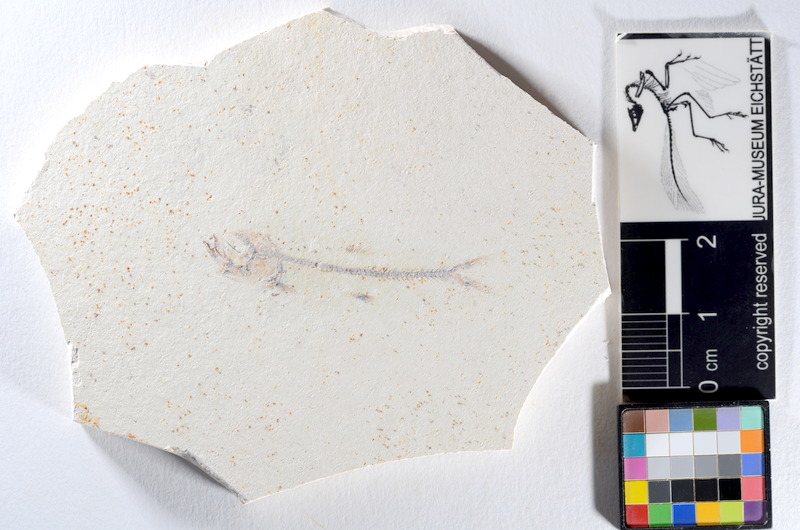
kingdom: Animalia
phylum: Chordata
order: Salmoniformes
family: Orthogonikleithridae
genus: Orthogonikleithrus
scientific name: Orthogonikleithrus hoelli
